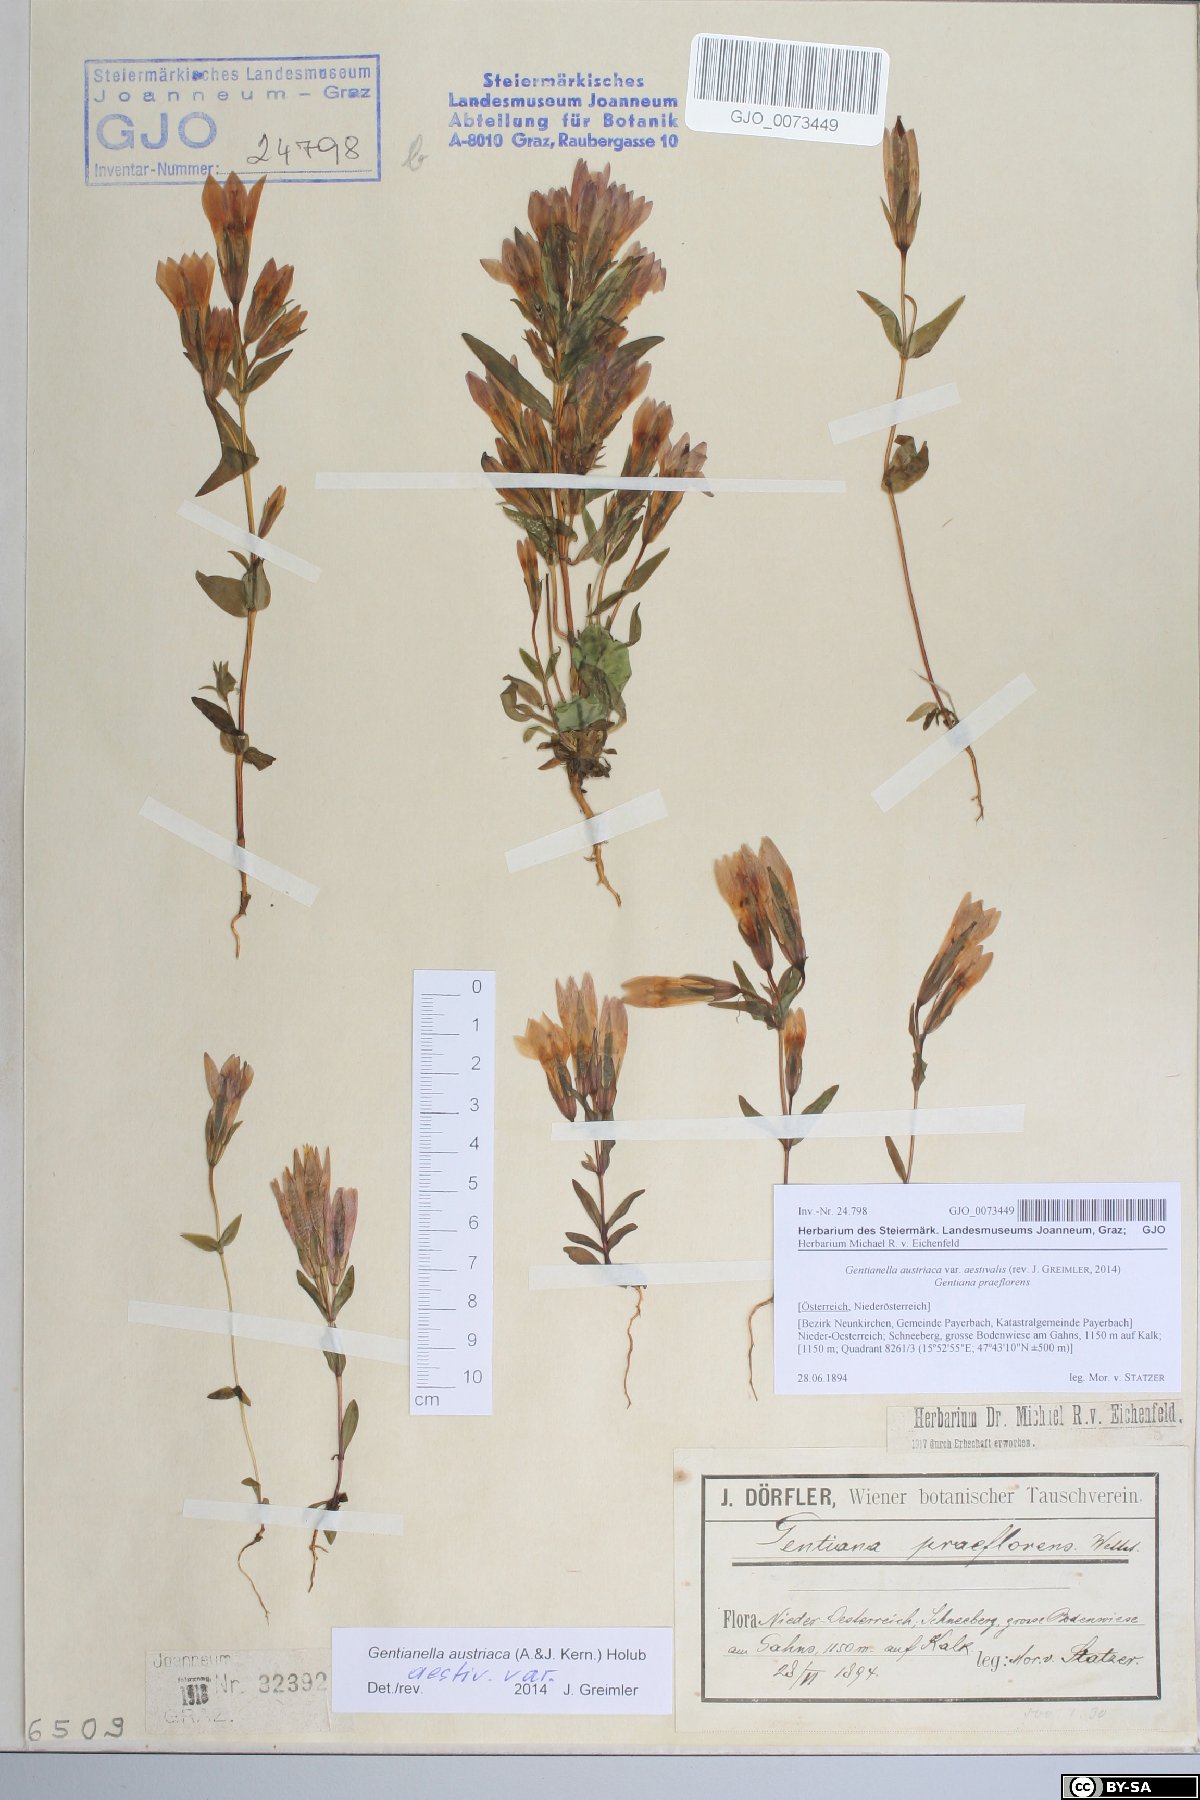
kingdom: Plantae
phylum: Tracheophyta
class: Magnoliopsida
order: Gentianales
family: Gentianaceae
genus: Gentianella
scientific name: Gentianella austriaca
